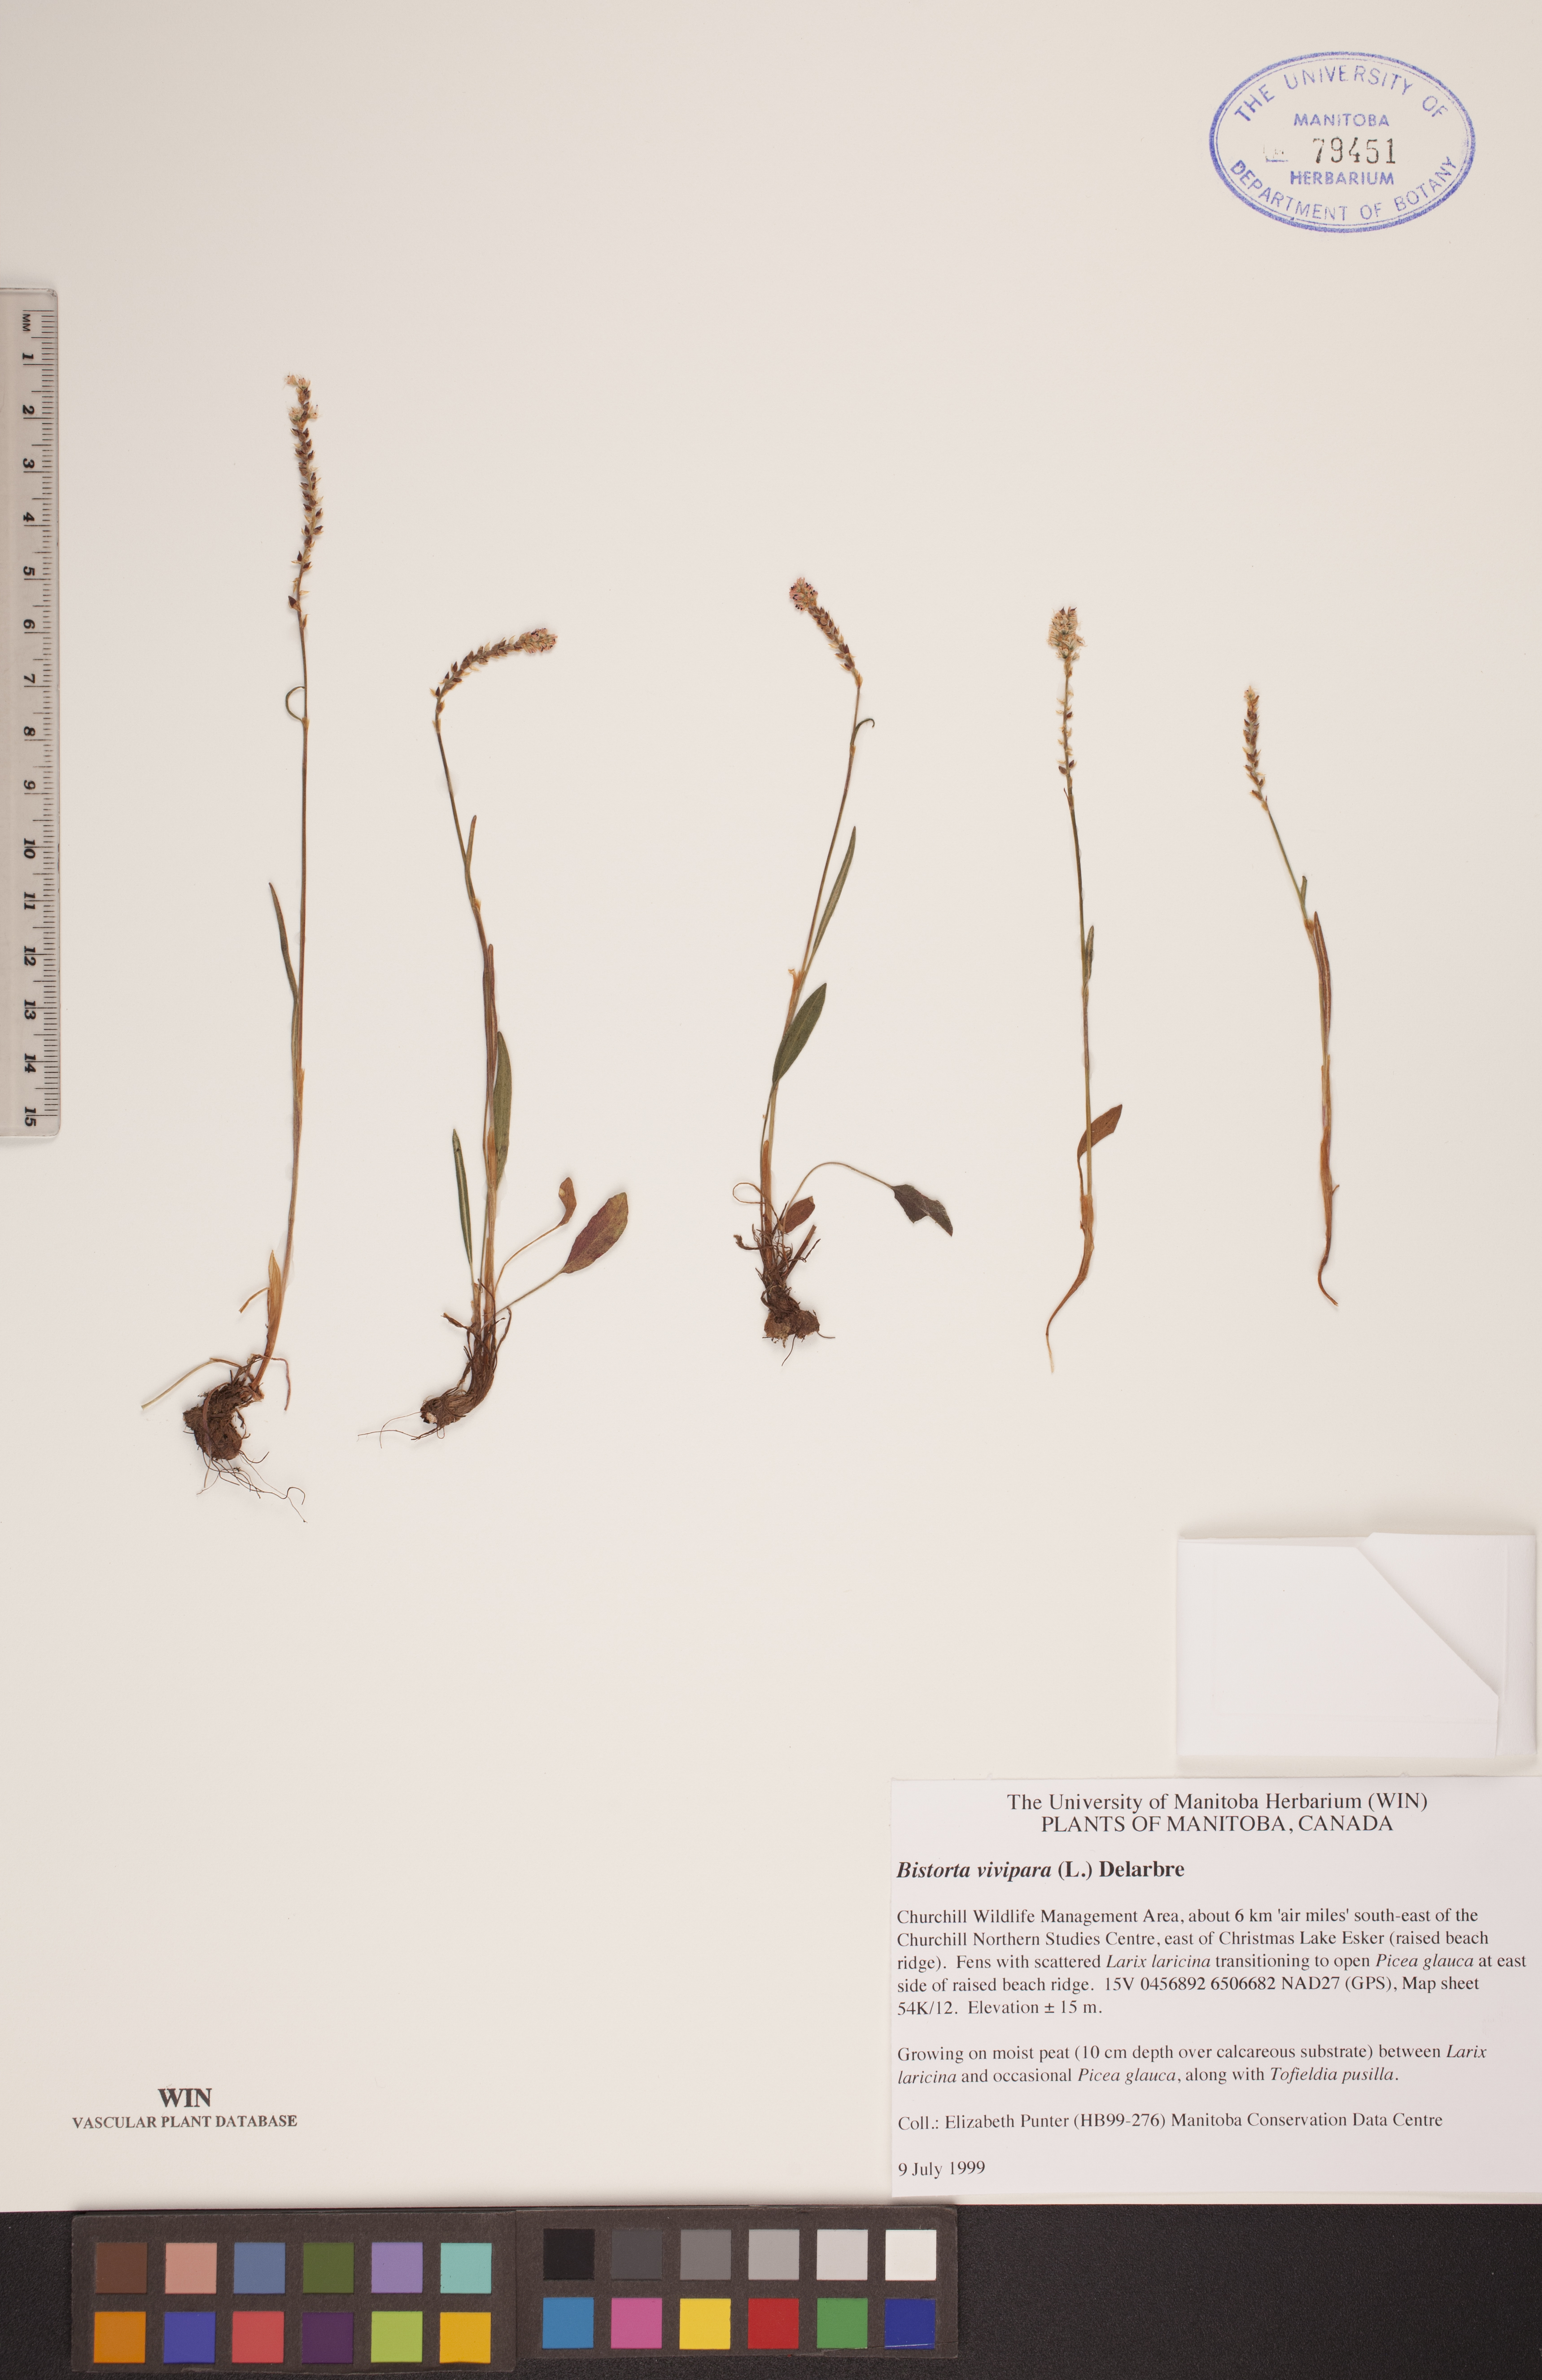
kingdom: Plantae
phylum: Tracheophyta
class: Magnoliopsida
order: Caryophyllales
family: Polygonaceae
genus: Bistorta
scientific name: Bistorta vivipara
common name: Alpine bistort
